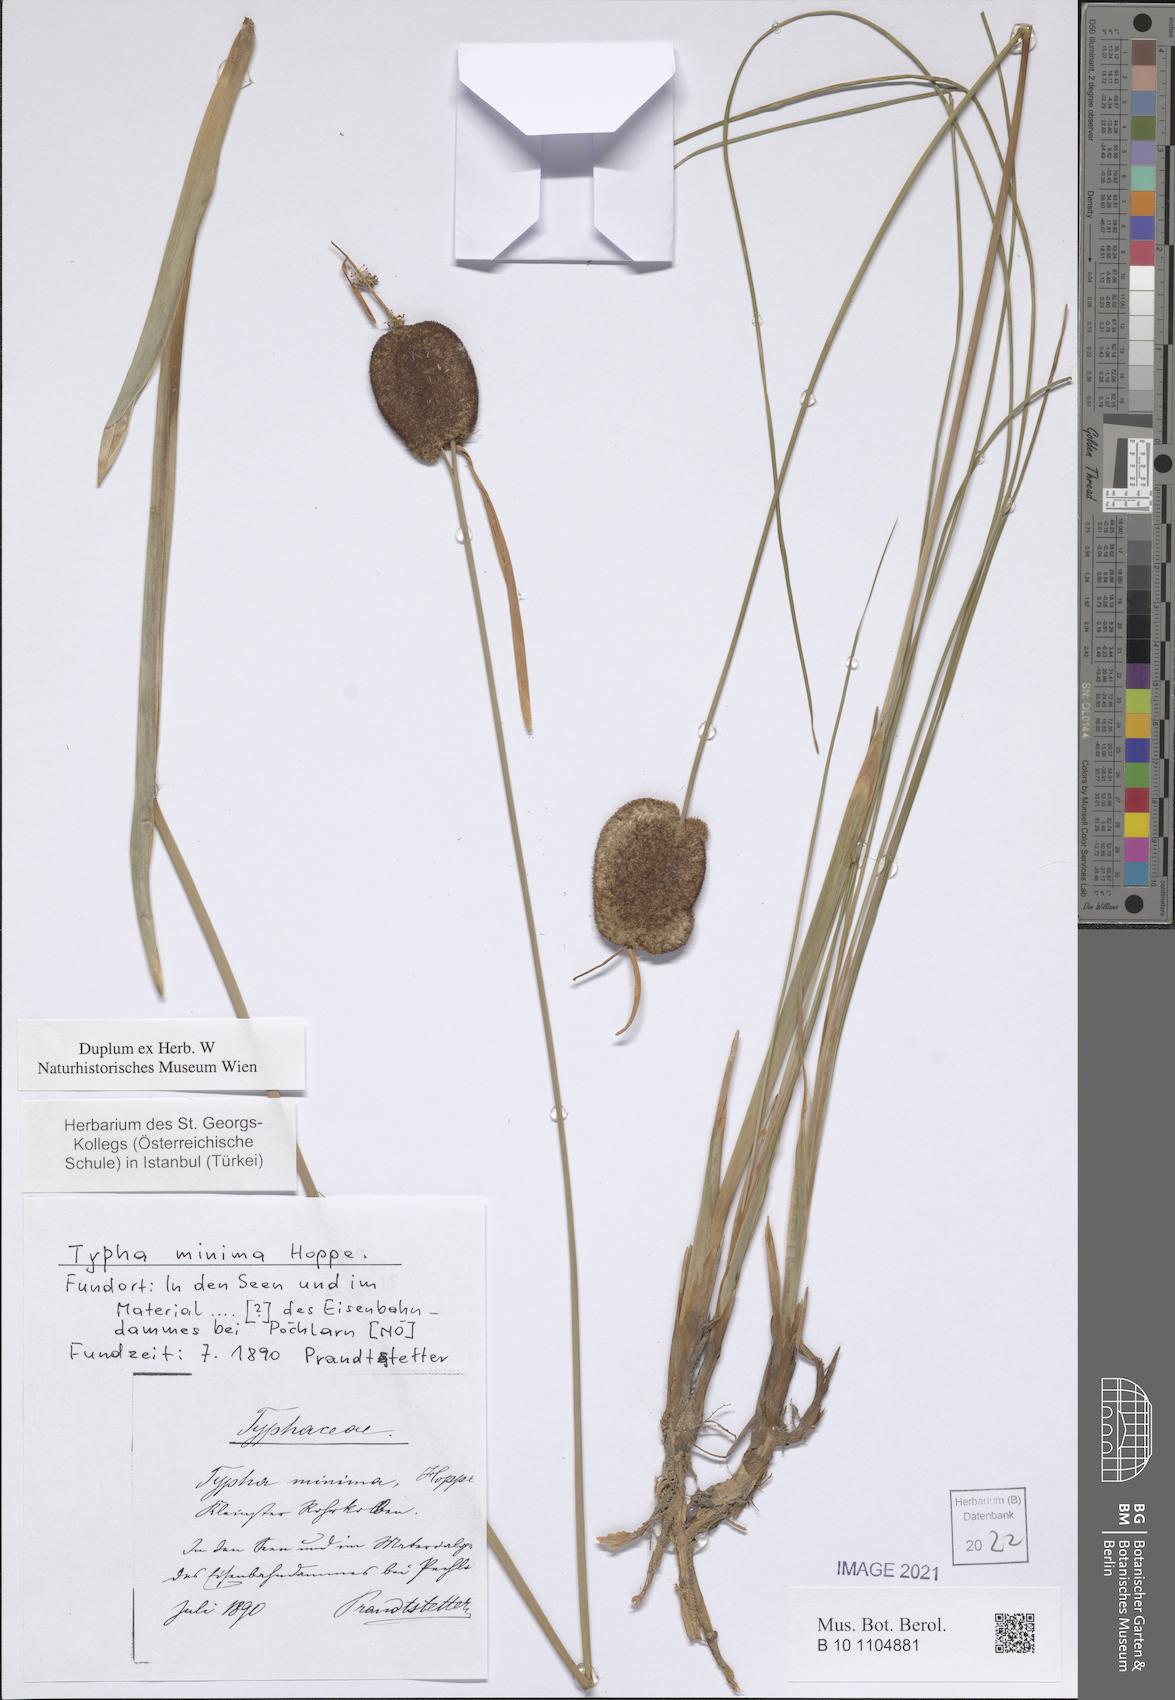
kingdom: Plantae
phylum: Tracheophyta
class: Liliopsida
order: Poales
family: Typhaceae
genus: Typha
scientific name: Typha minima
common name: Dwarf bulrush
